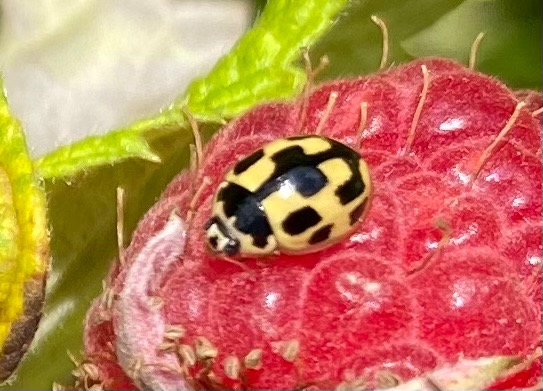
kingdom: Animalia
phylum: Arthropoda
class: Insecta
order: Coleoptera
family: Coccinellidae
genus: Propylaea
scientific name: Propylaea quatuordecimpunctata
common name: Skakbræt
